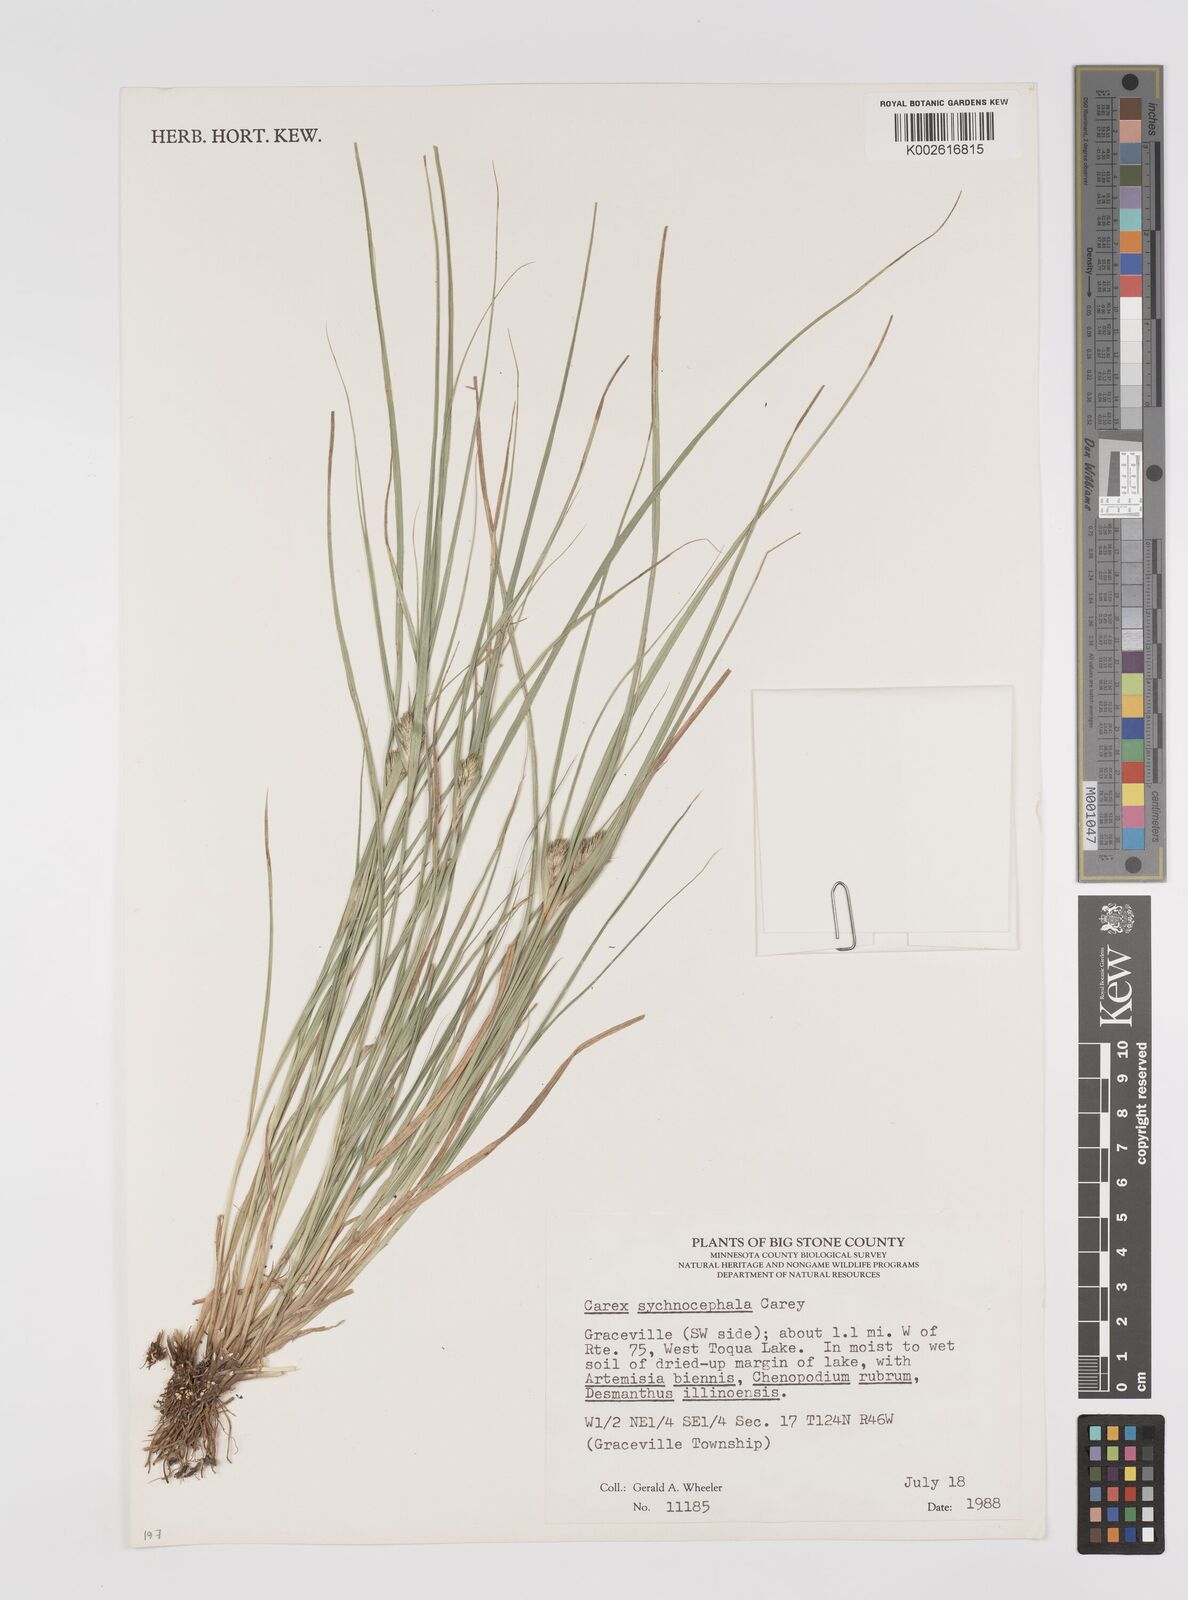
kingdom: Plantae
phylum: Tracheophyta
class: Liliopsida
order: Poales
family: Cyperaceae
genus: Carex
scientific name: Carex sychnocephala
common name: Dense long-beaked sedge
